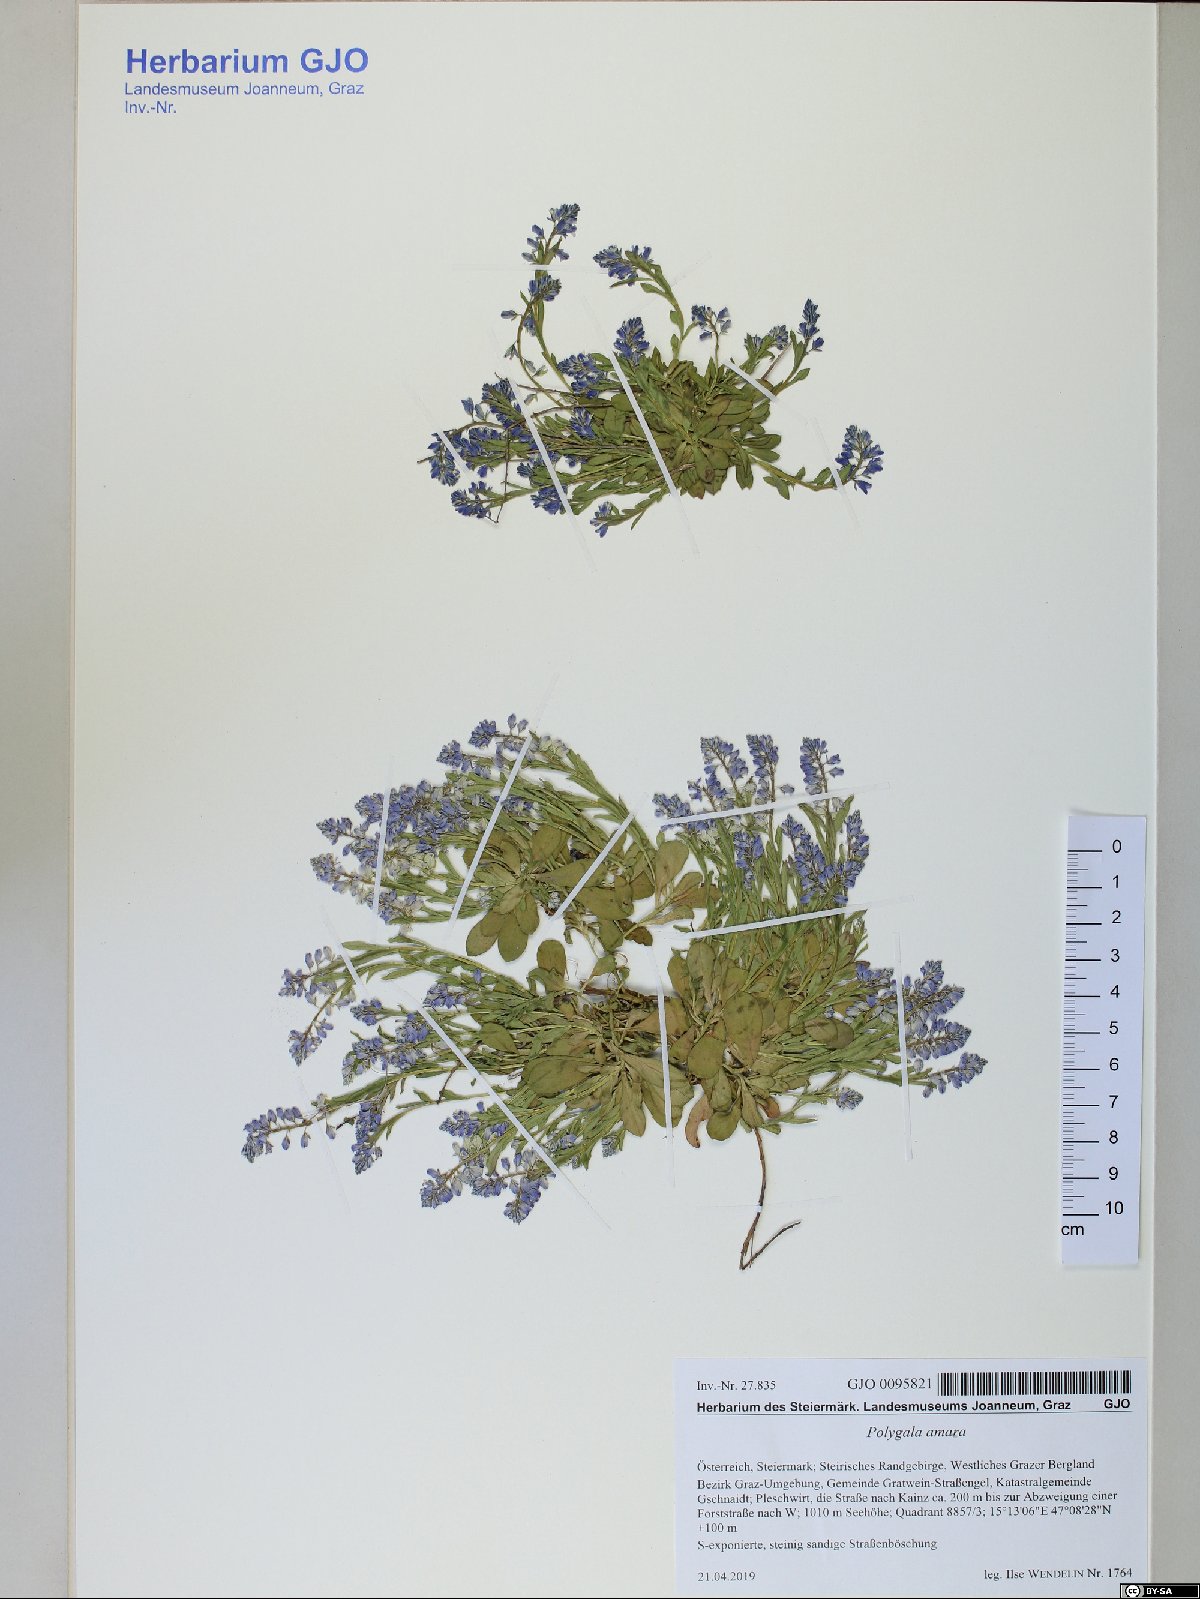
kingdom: Plantae
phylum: Tracheophyta
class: Magnoliopsida
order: Fabales
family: Polygalaceae
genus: Polygala
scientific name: Polygala amara
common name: Milkwort
